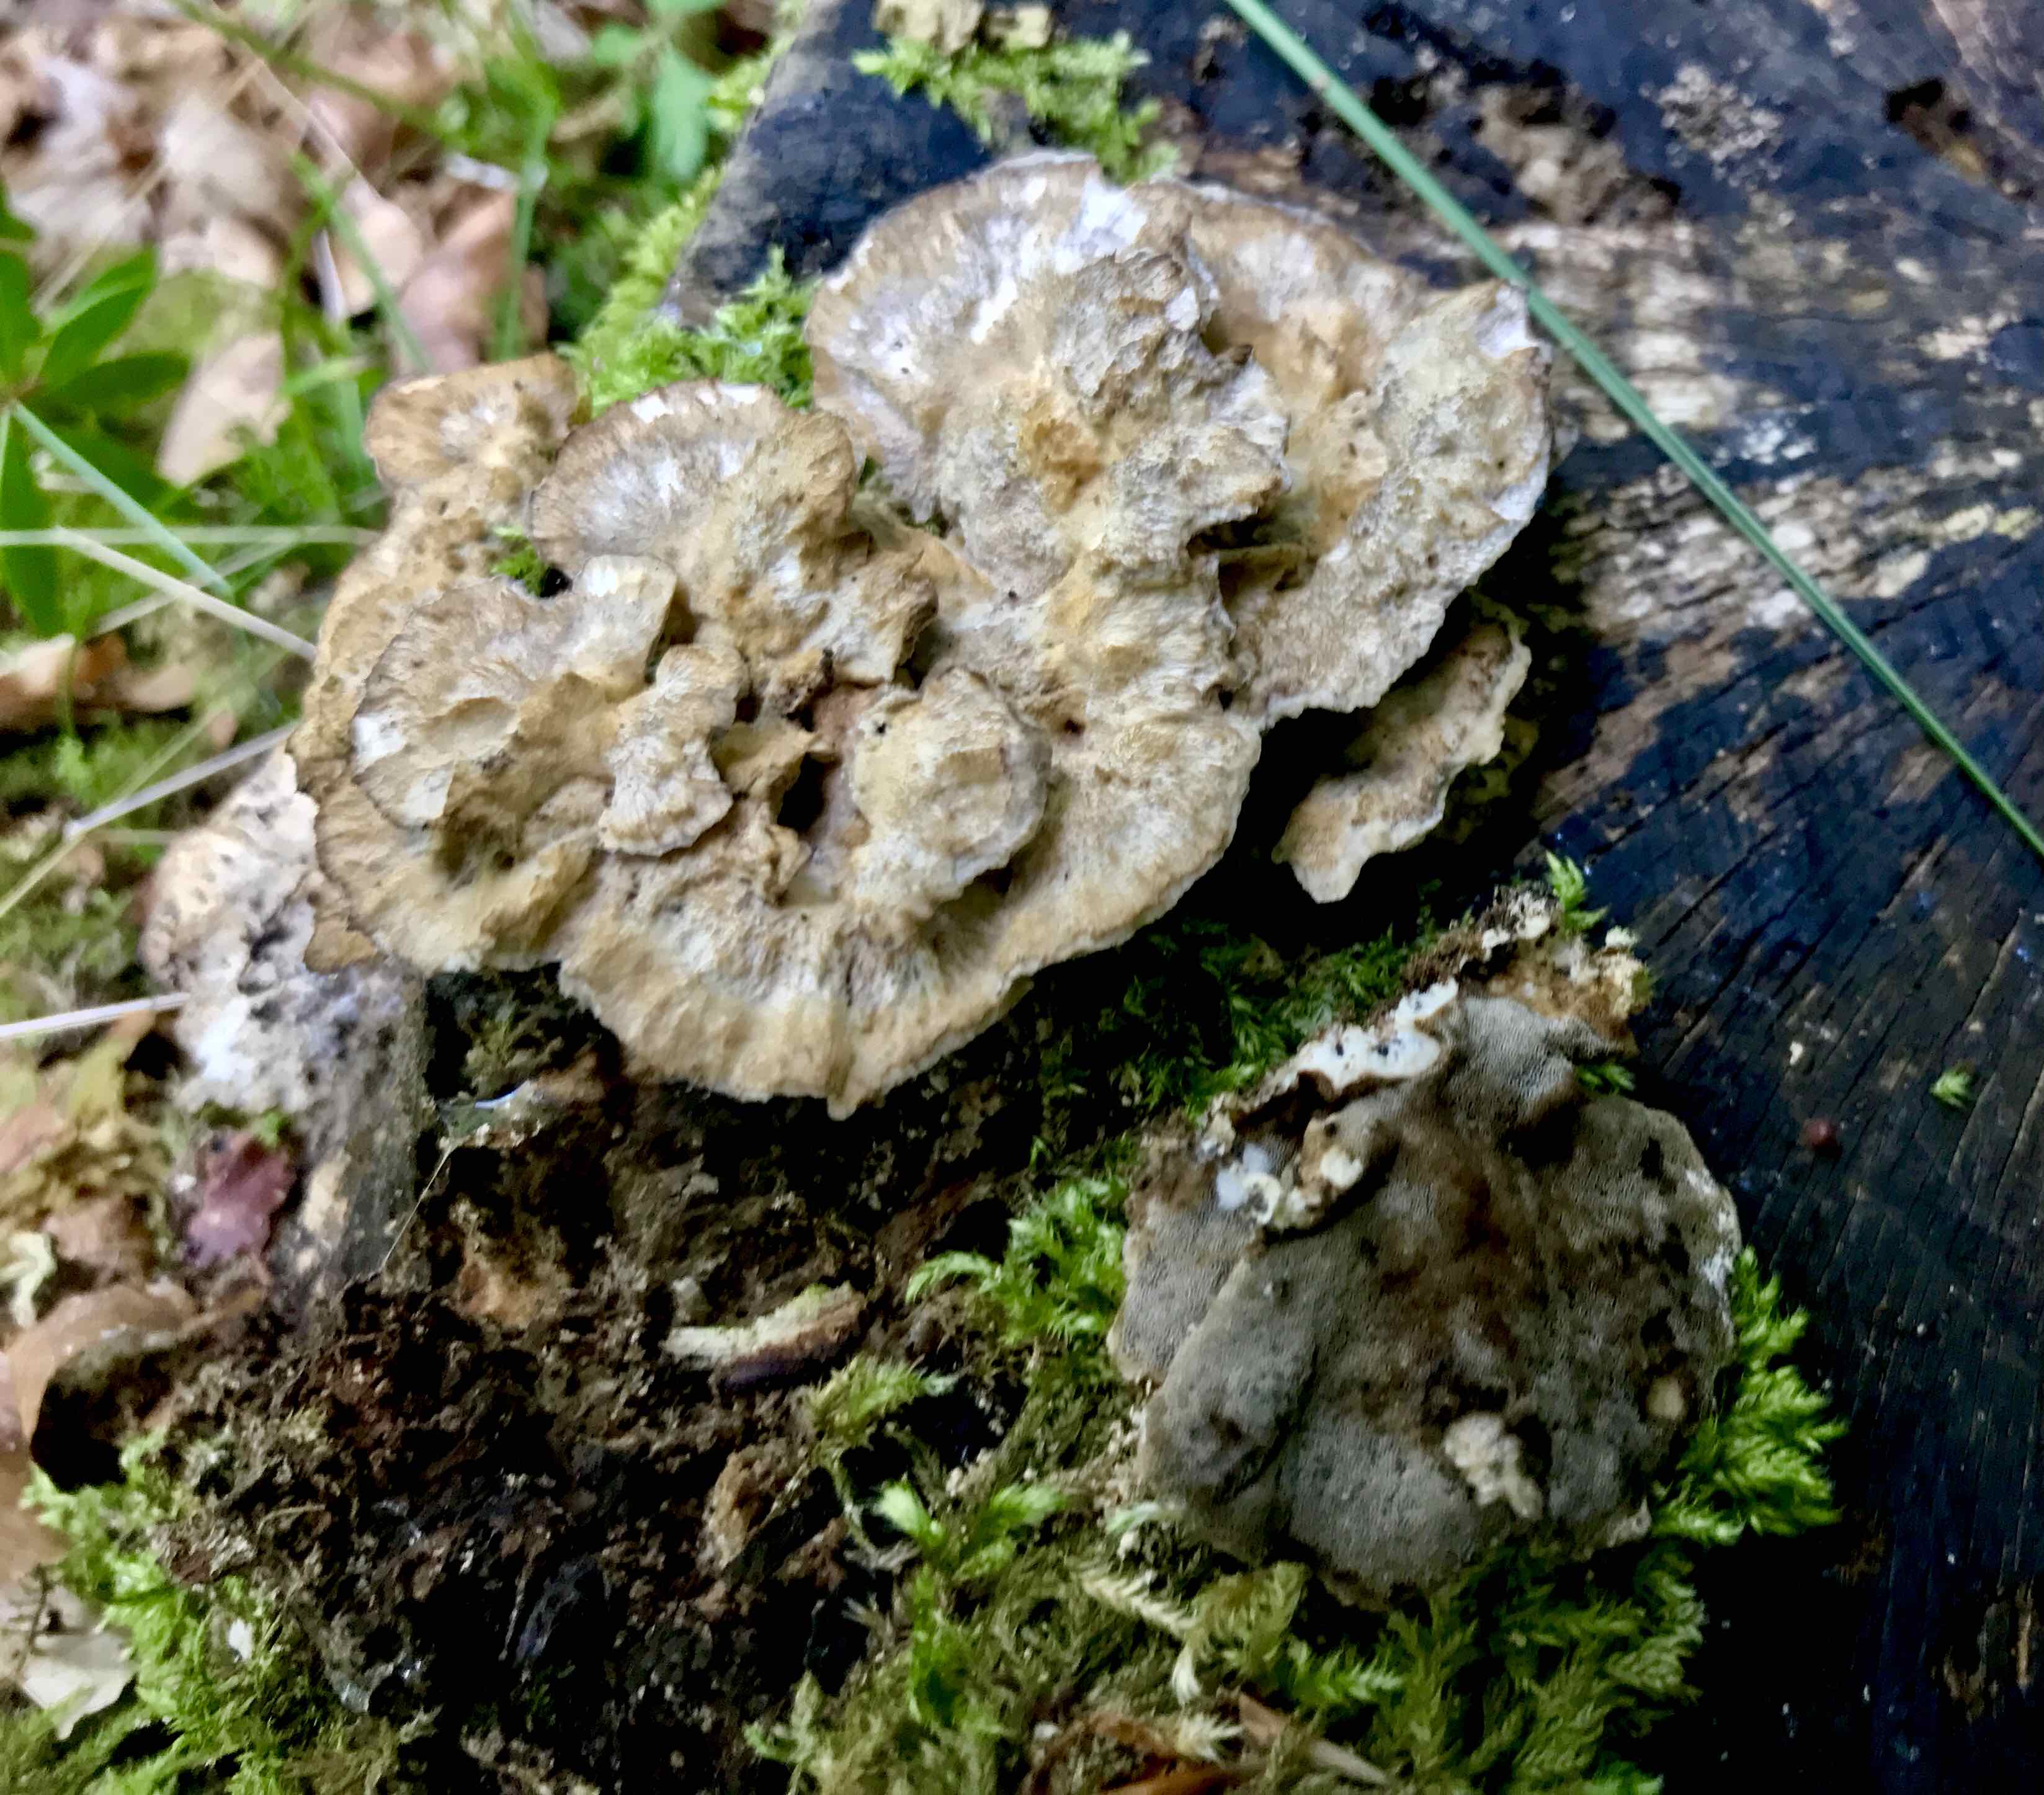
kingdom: Fungi
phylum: Basidiomycota
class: Agaricomycetes
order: Polyporales
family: Phanerochaetaceae
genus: Bjerkandera
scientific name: Bjerkandera adusta
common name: sveden sodporesvamp
